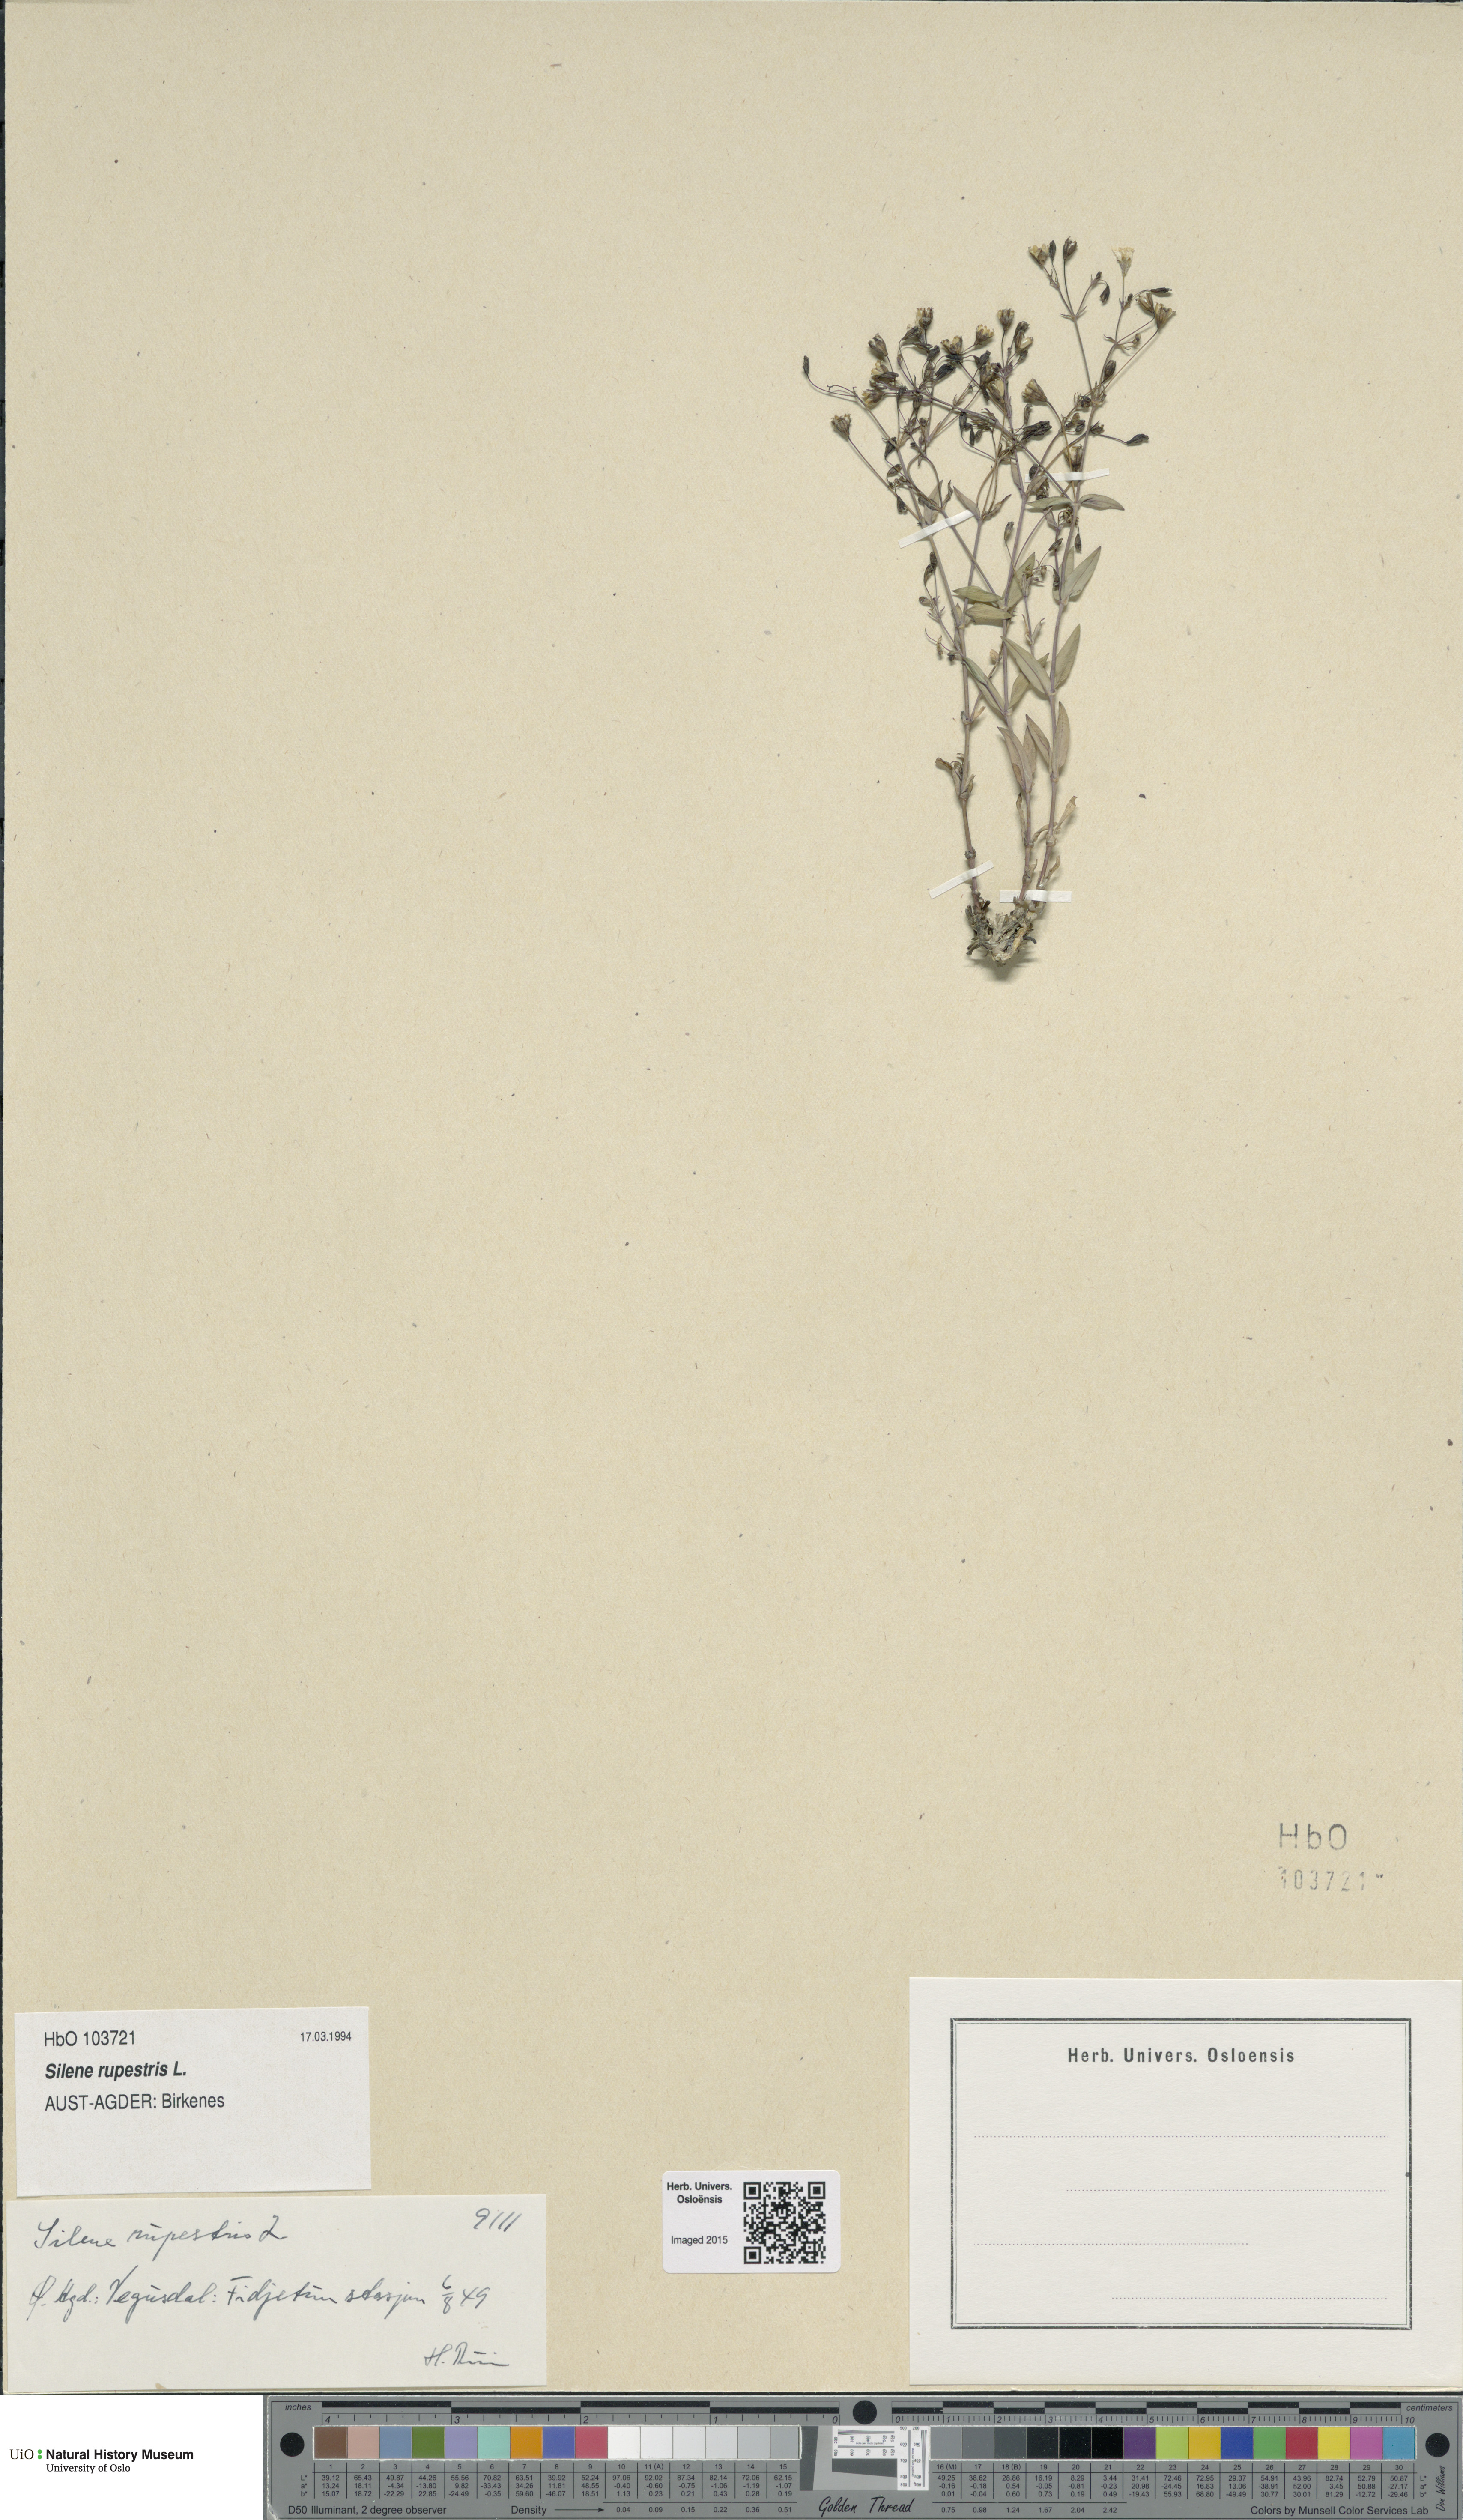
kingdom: Plantae
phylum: Tracheophyta
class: Magnoliopsida
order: Caryophyllales
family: Caryophyllaceae
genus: Atocion
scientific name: Atocion rupestre
